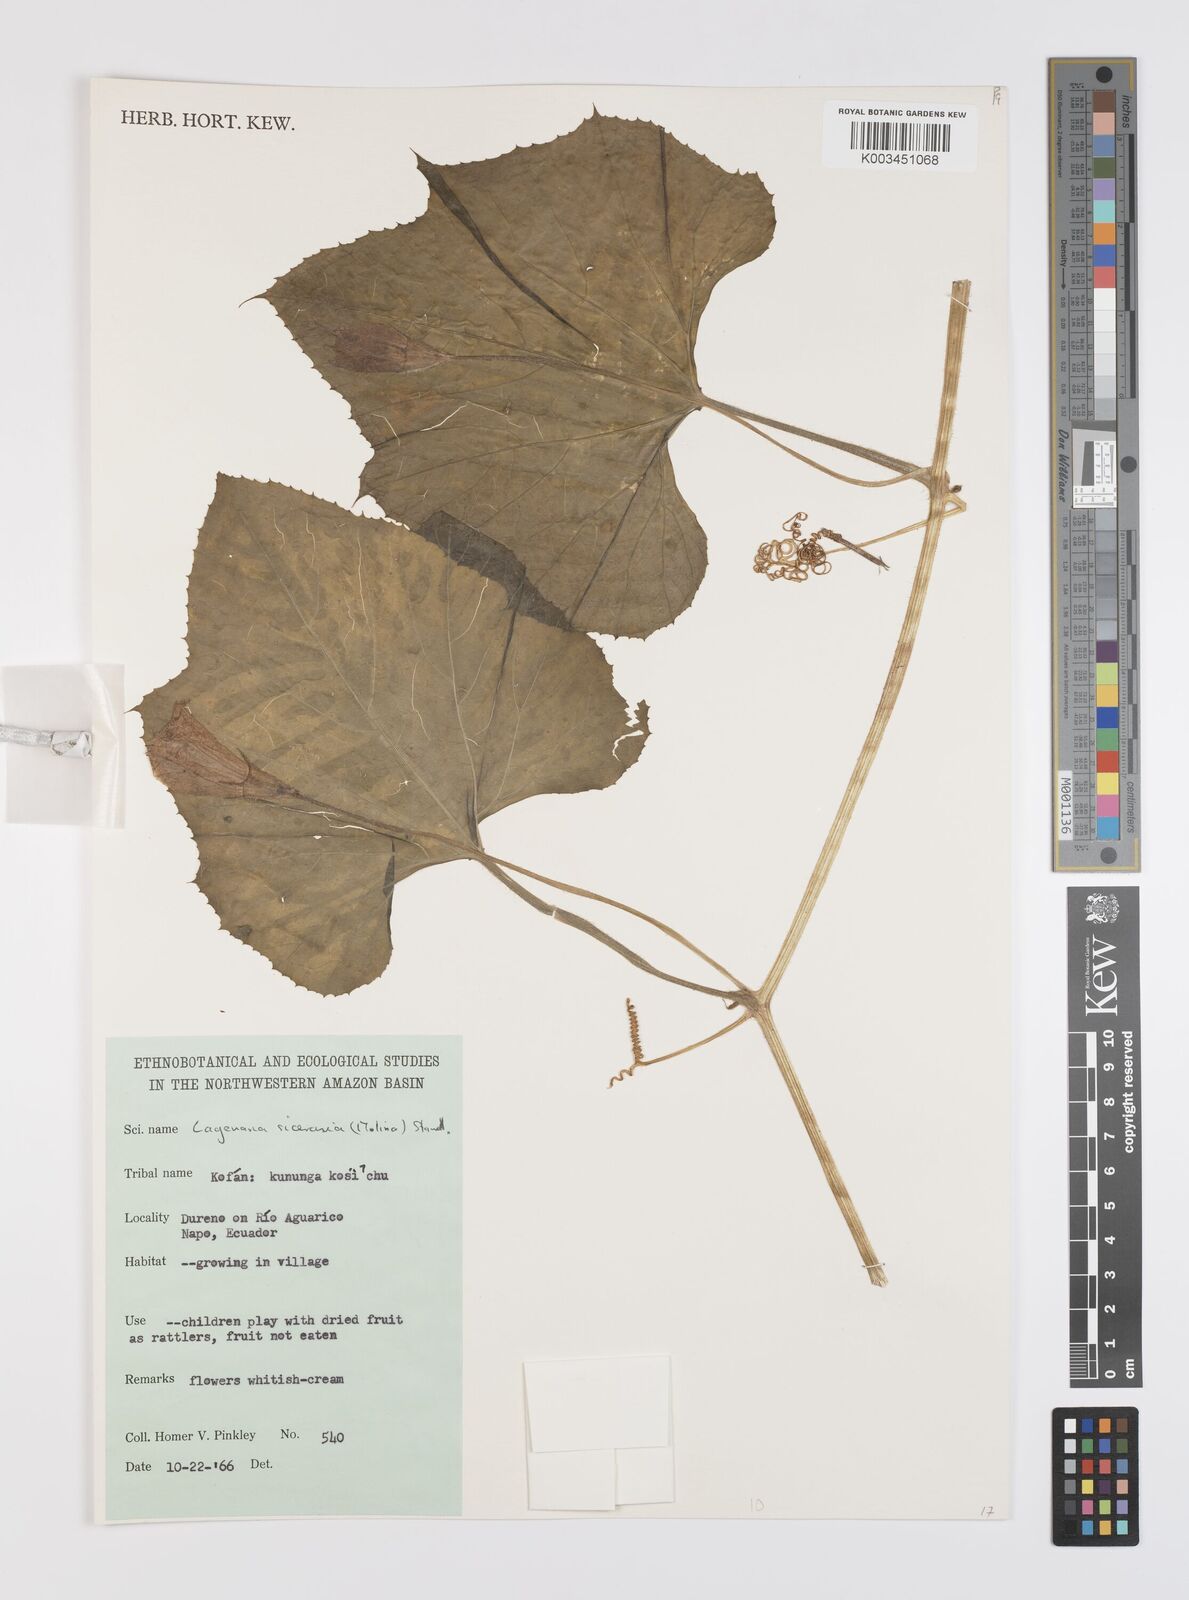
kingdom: Plantae
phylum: Tracheophyta
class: Magnoliopsida
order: Cucurbitales
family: Cucurbitaceae
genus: Lagenaria
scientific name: Lagenaria siceraria
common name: Bottle gourd
